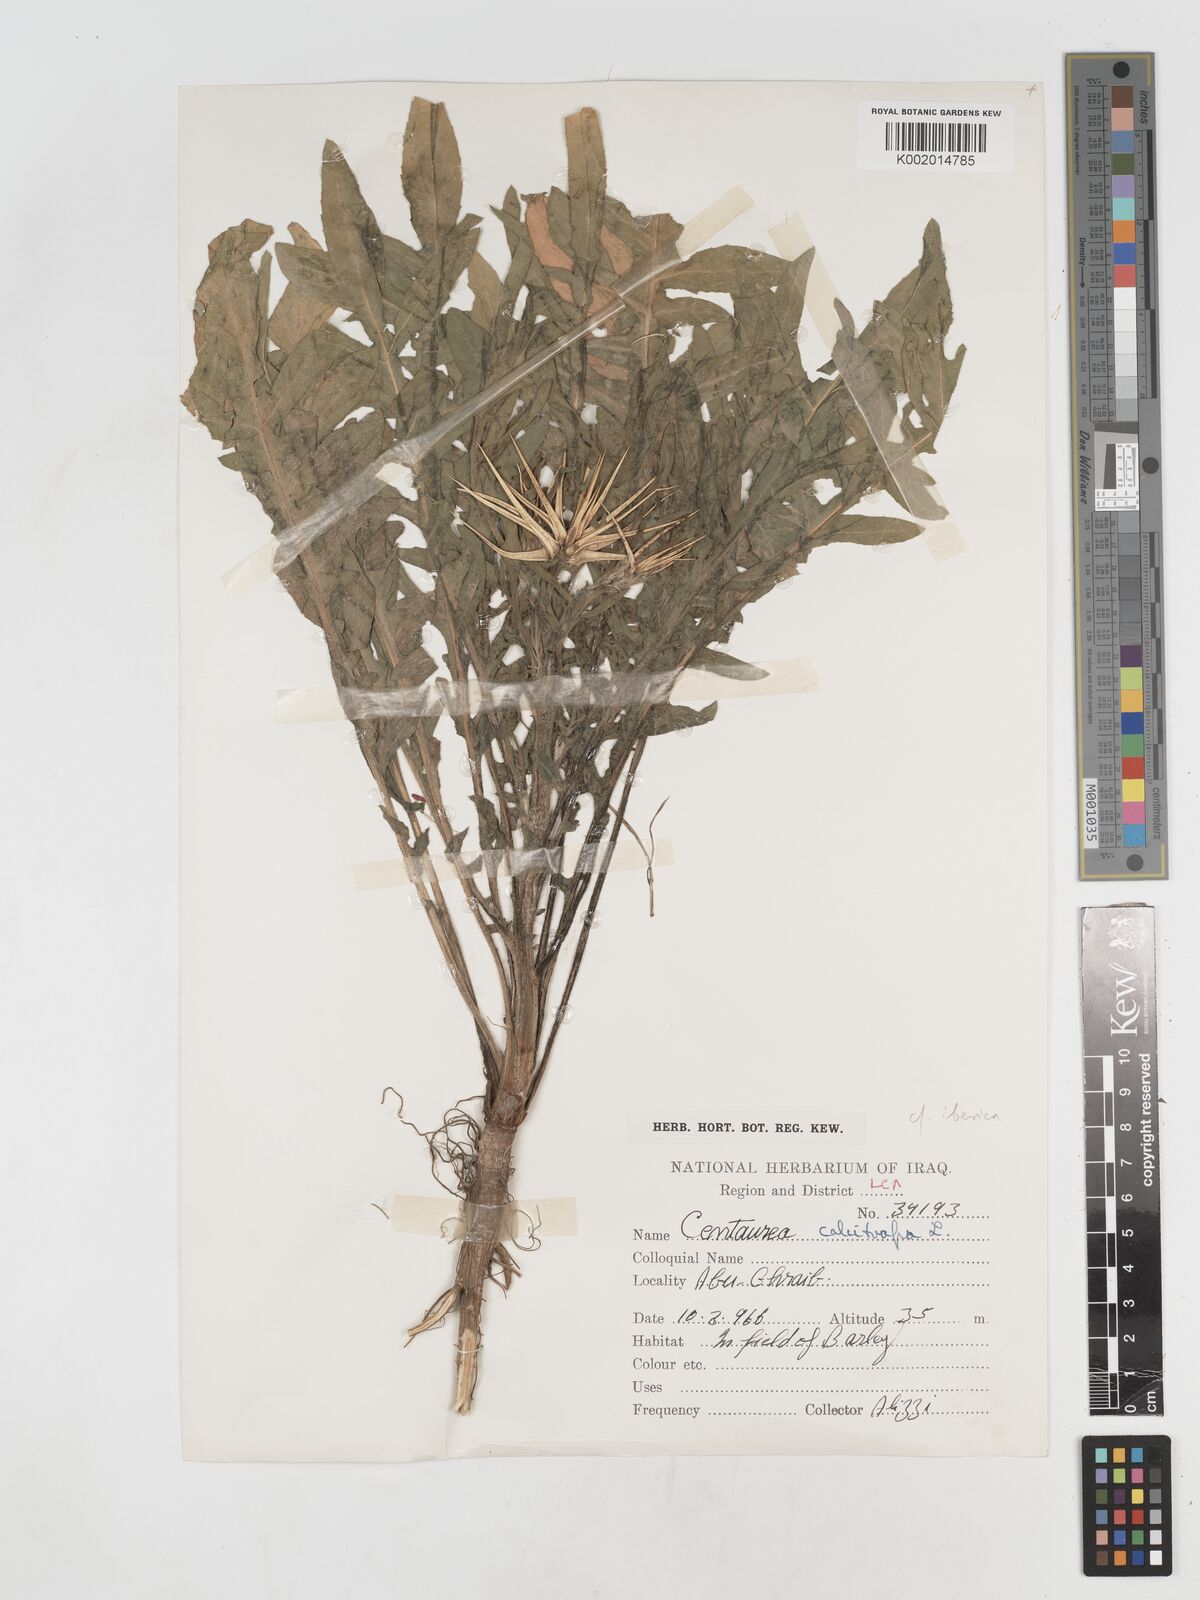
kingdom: Plantae
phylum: Tracheophyta
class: Magnoliopsida
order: Asterales
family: Asteraceae
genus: Centaurea
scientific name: Centaurea iberica
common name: Iberian knapweed
